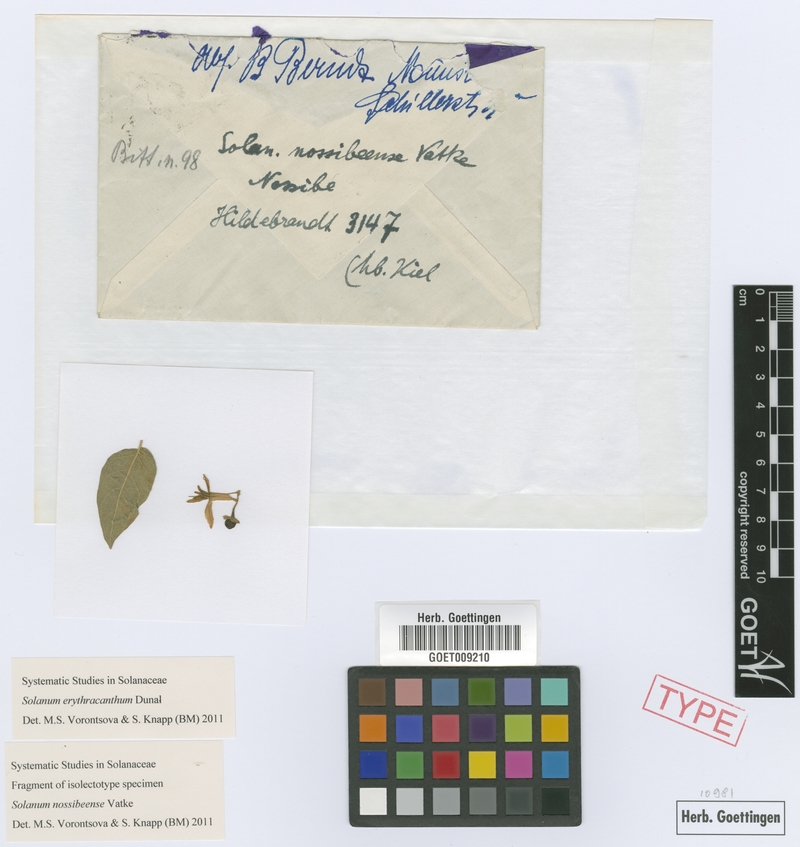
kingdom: Plantae
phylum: Tracheophyta
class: Magnoliopsida
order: Solanales
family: Solanaceae
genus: Solanum
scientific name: Solanum erythracanthum
